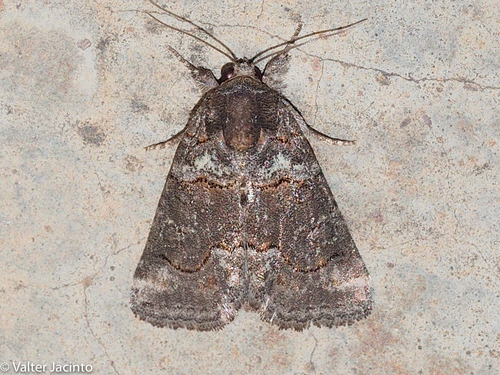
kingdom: Animalia
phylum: Arthropoda
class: Insecta
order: Lepidoptera
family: Noctuidae
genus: Bryophila
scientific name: Bryophila ravula
